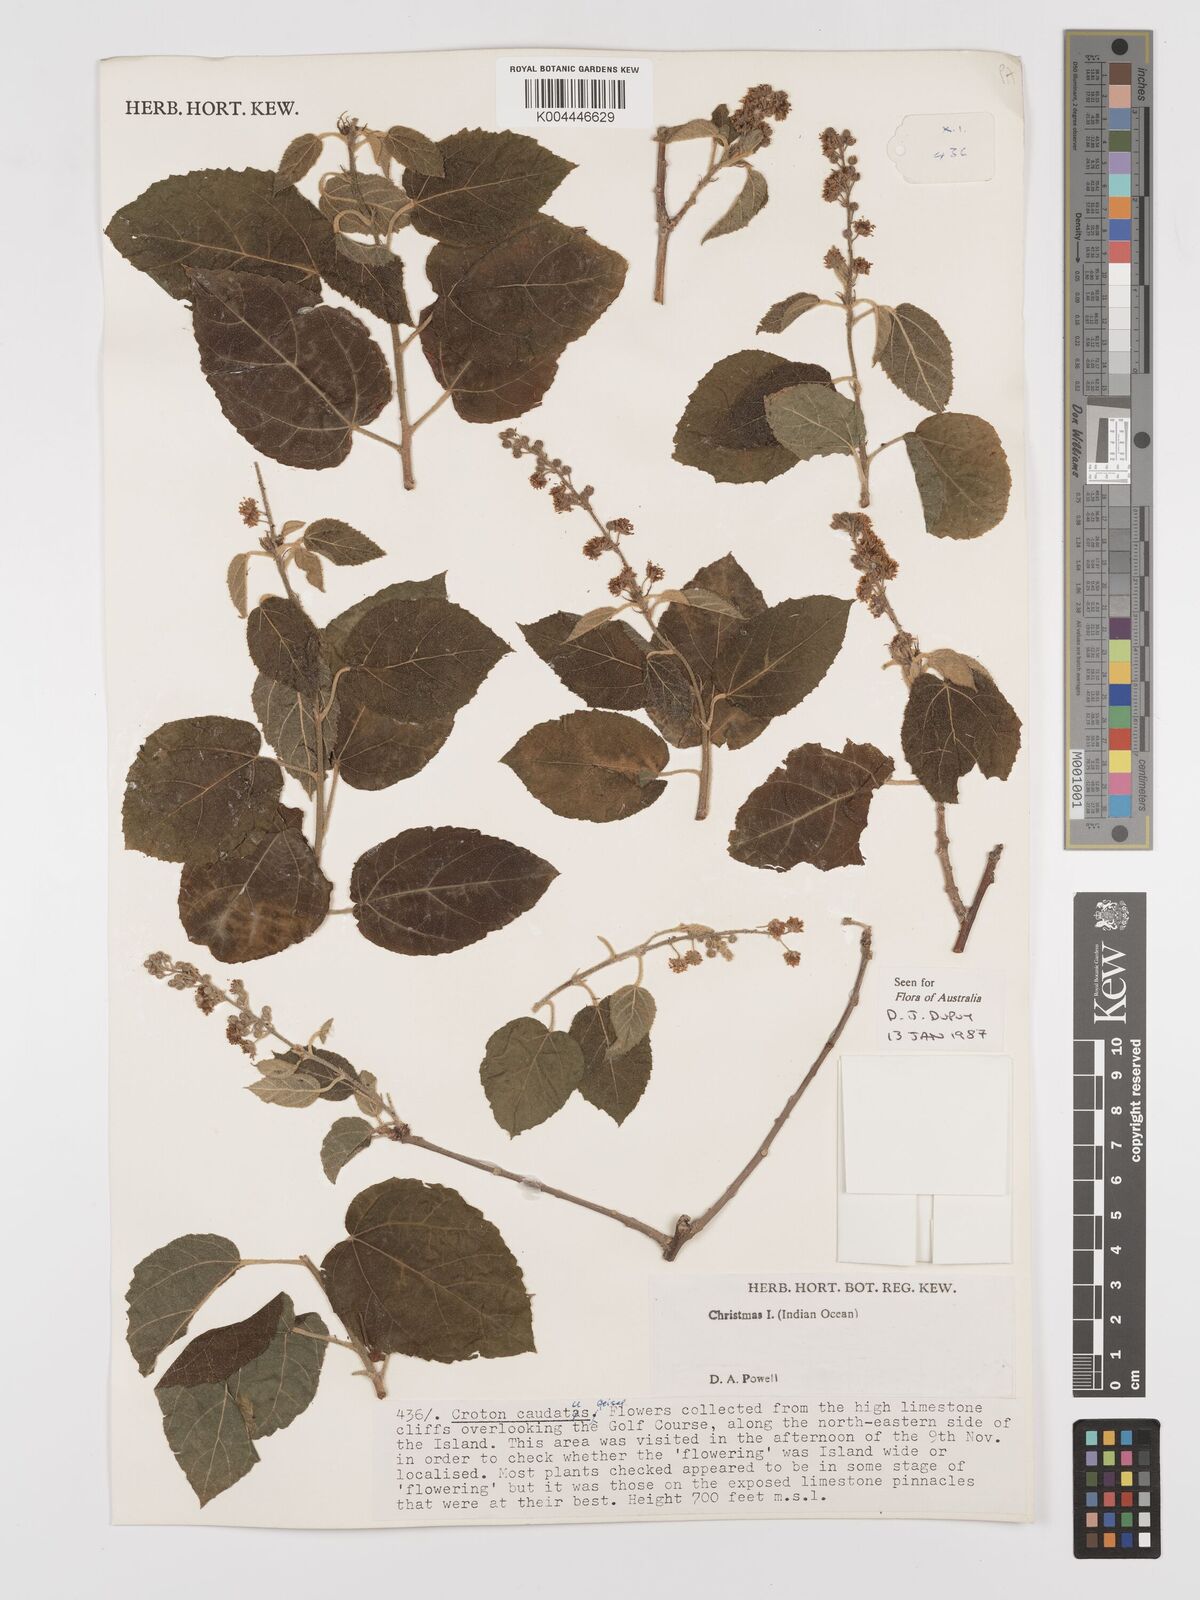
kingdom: Plantae
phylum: Tracheophyta
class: Magnoliopsida
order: Malpighiales
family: Euphorbiaceae
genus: Croton
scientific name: Croton caudatus
